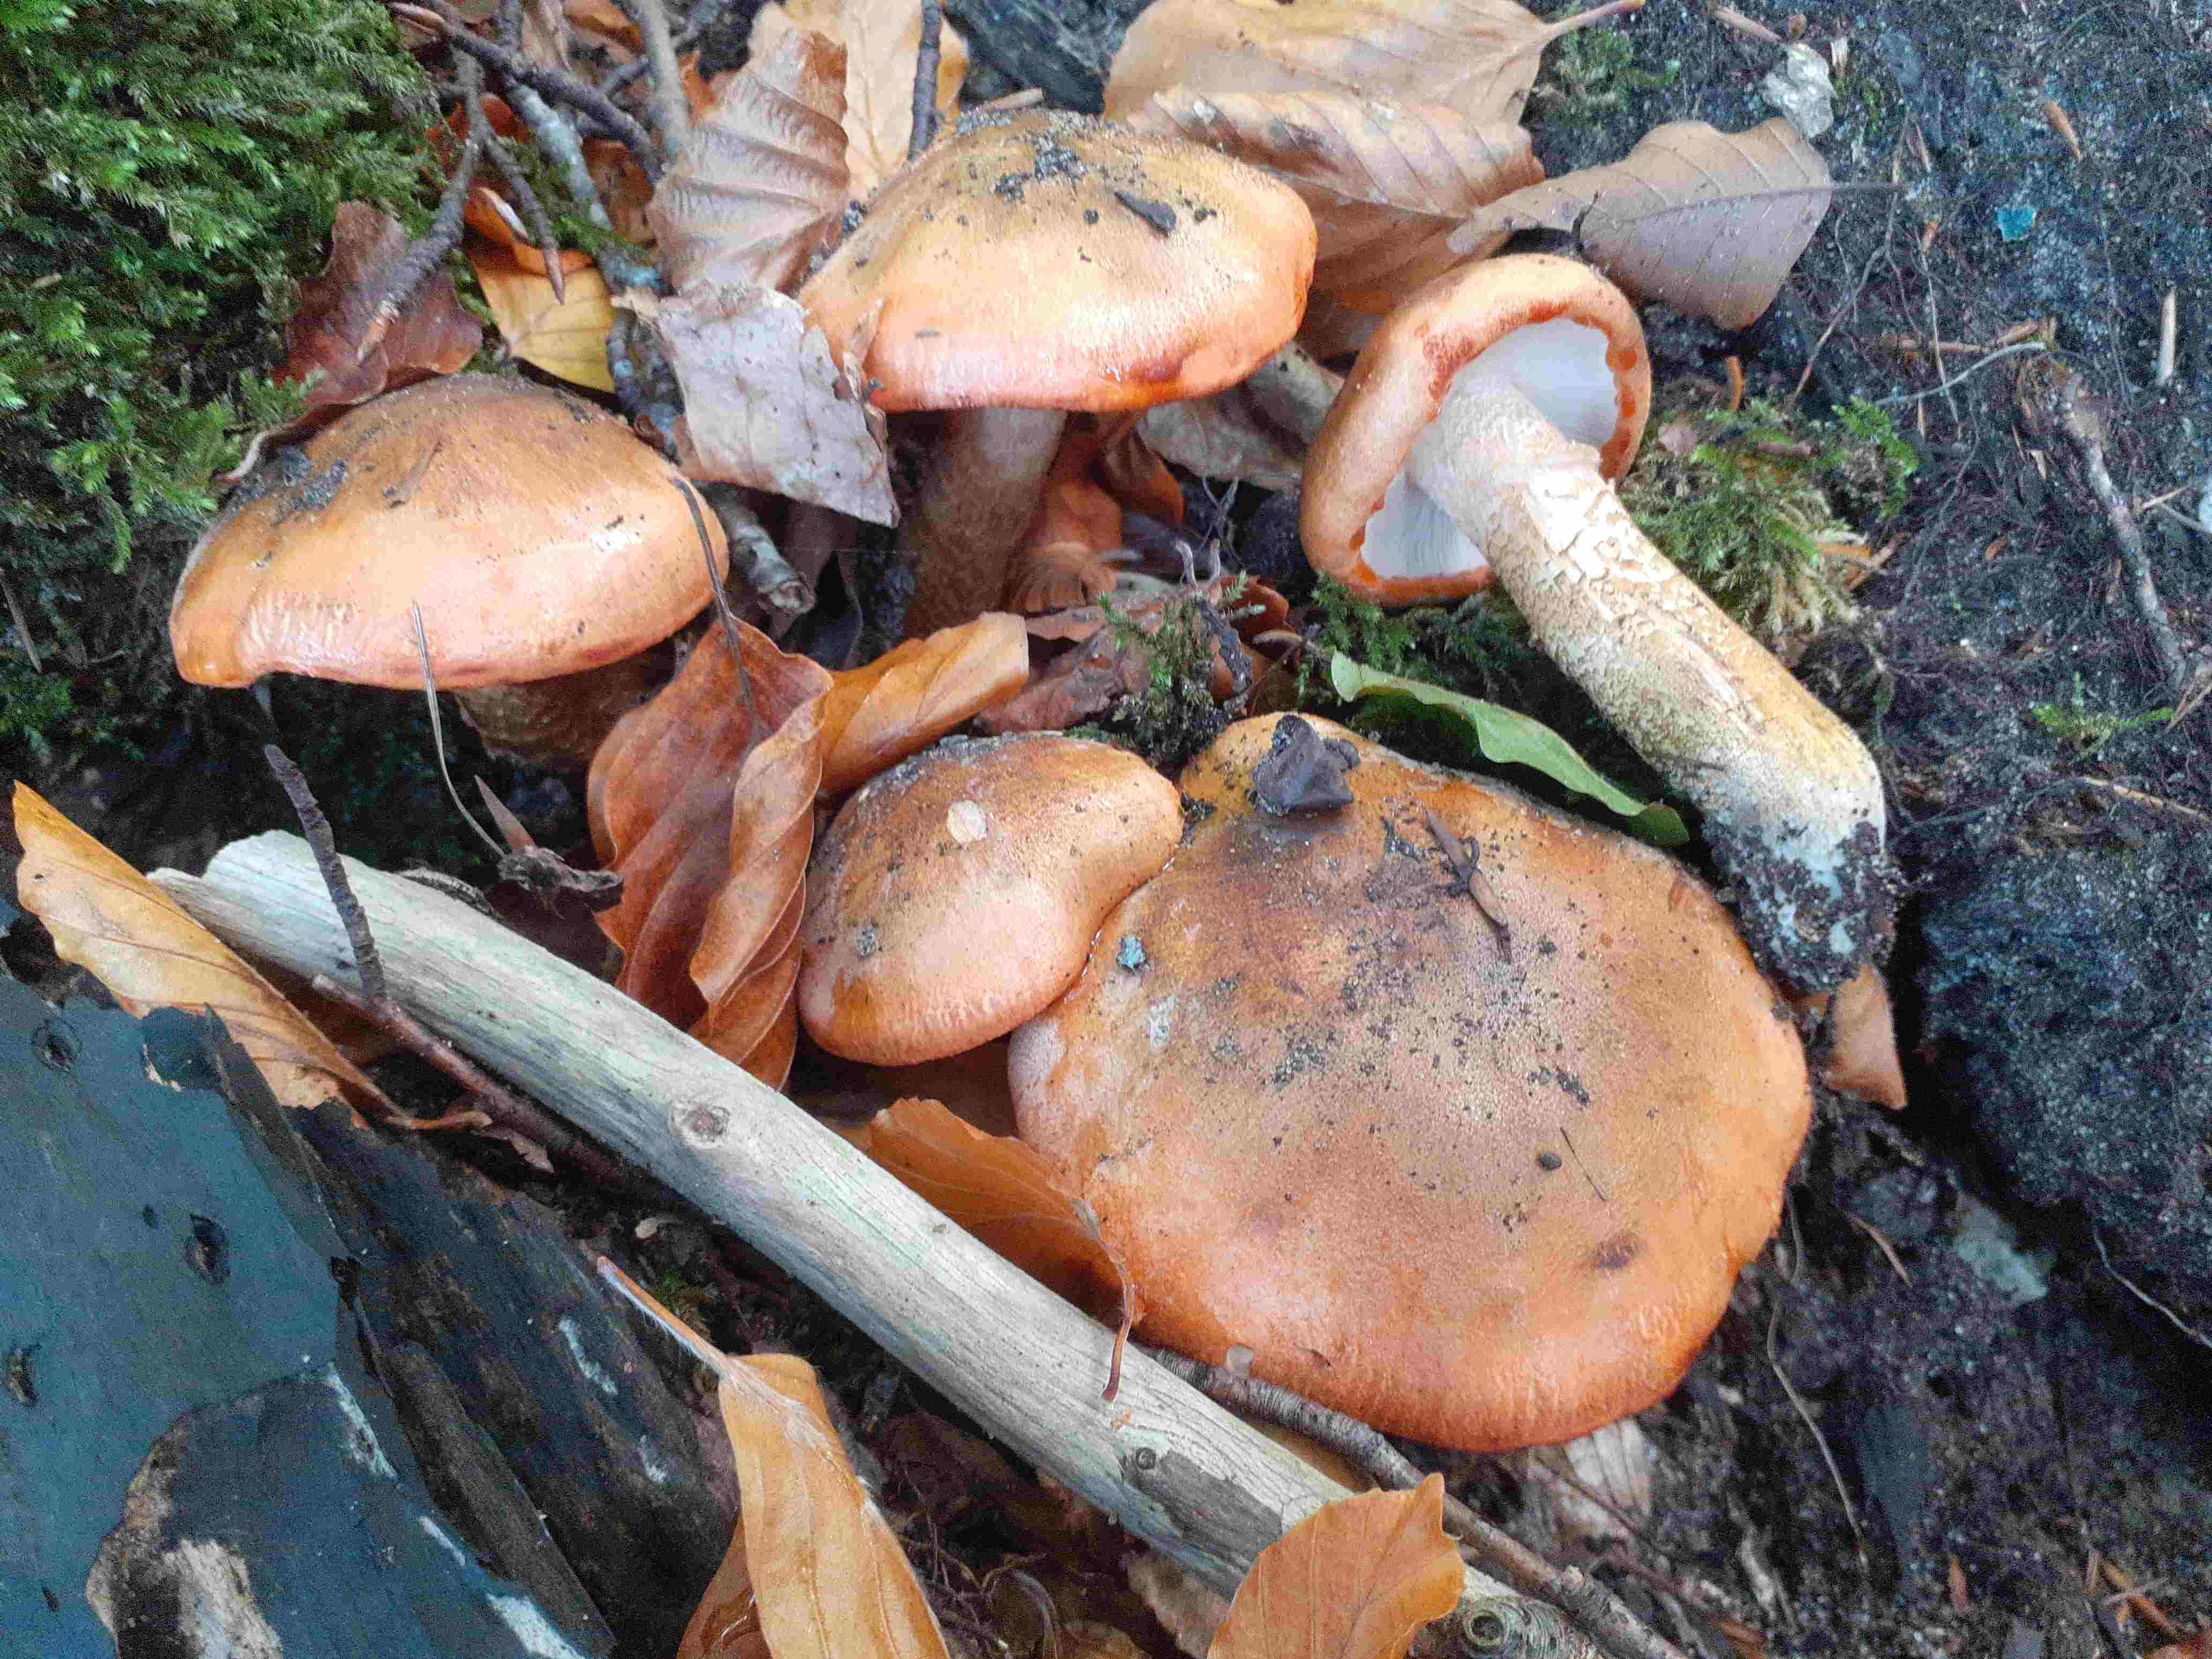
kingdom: Fungi
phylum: Basidiomycota
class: Agaricomycetes
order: Agaricales
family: Tricholomataceae
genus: Tricholoma
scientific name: Tricholoma aurantium
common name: orangegul ridderhat
